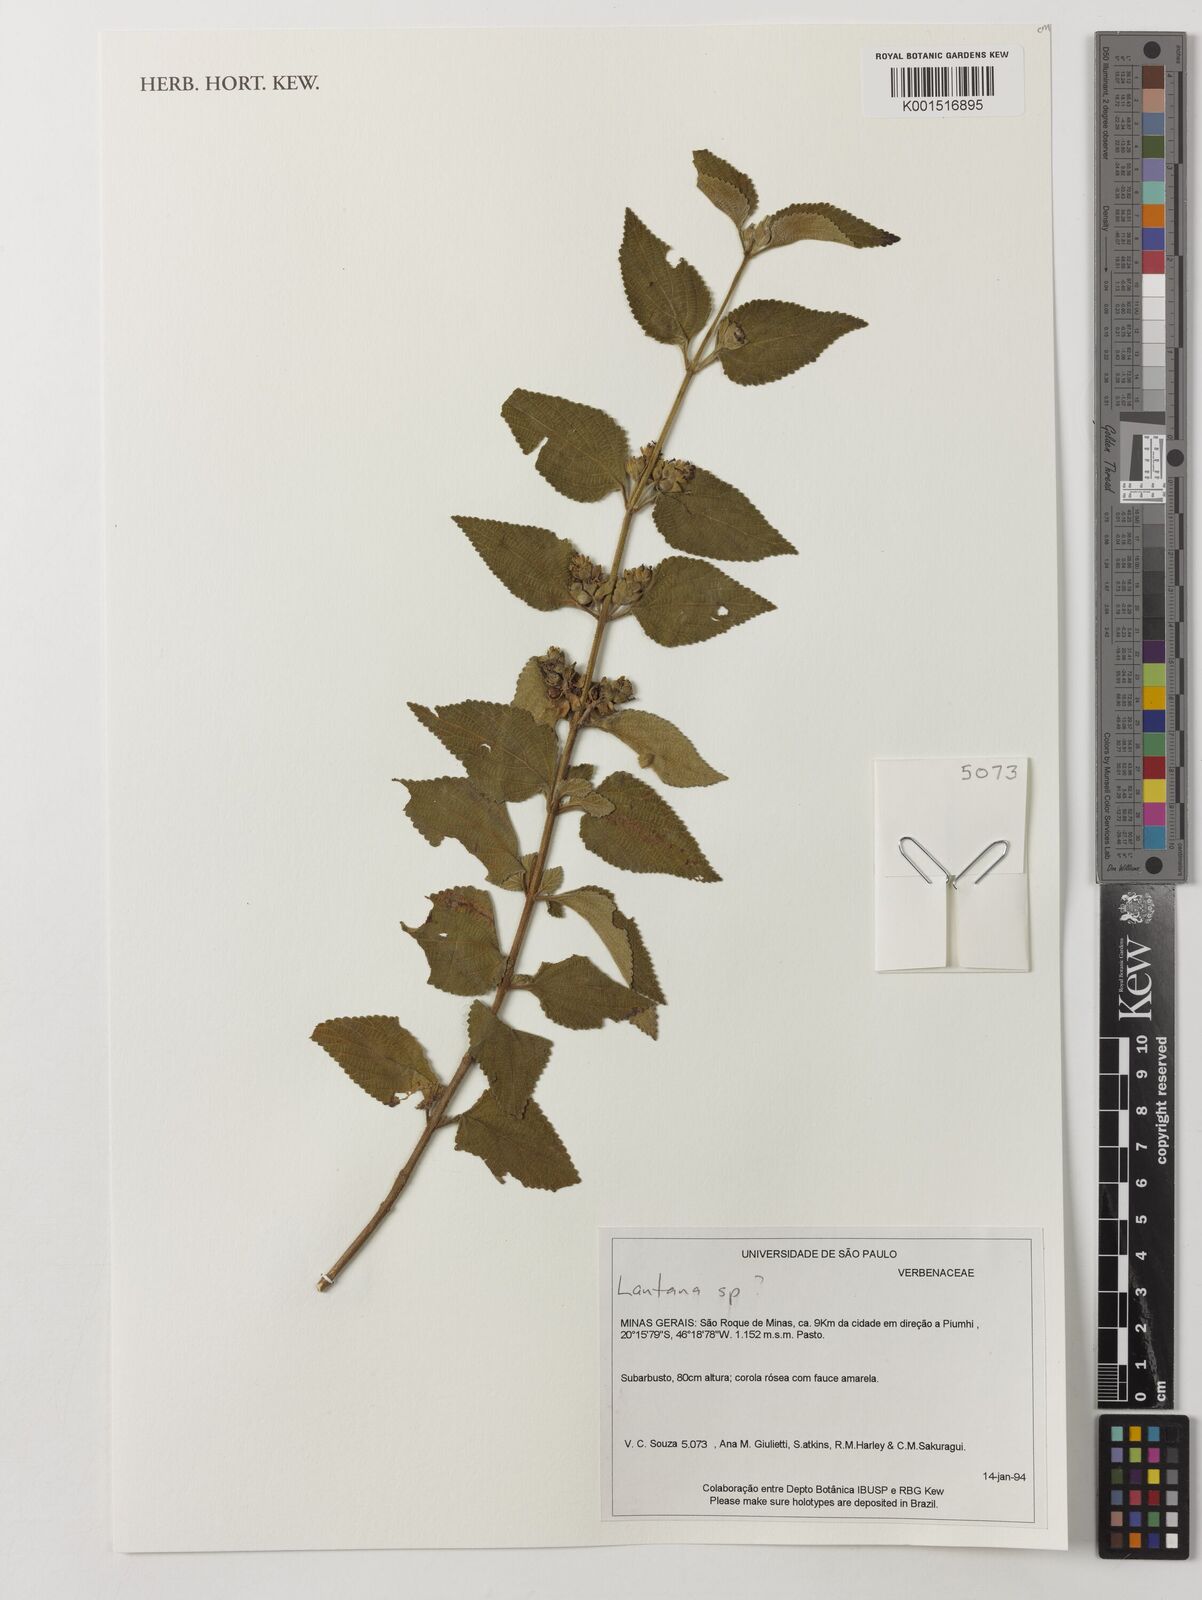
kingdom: Plantae
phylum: Tracheophyta
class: Magnoliopsida
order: Lamiales
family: Verbenaceae
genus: Lantana
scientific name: Lantana
